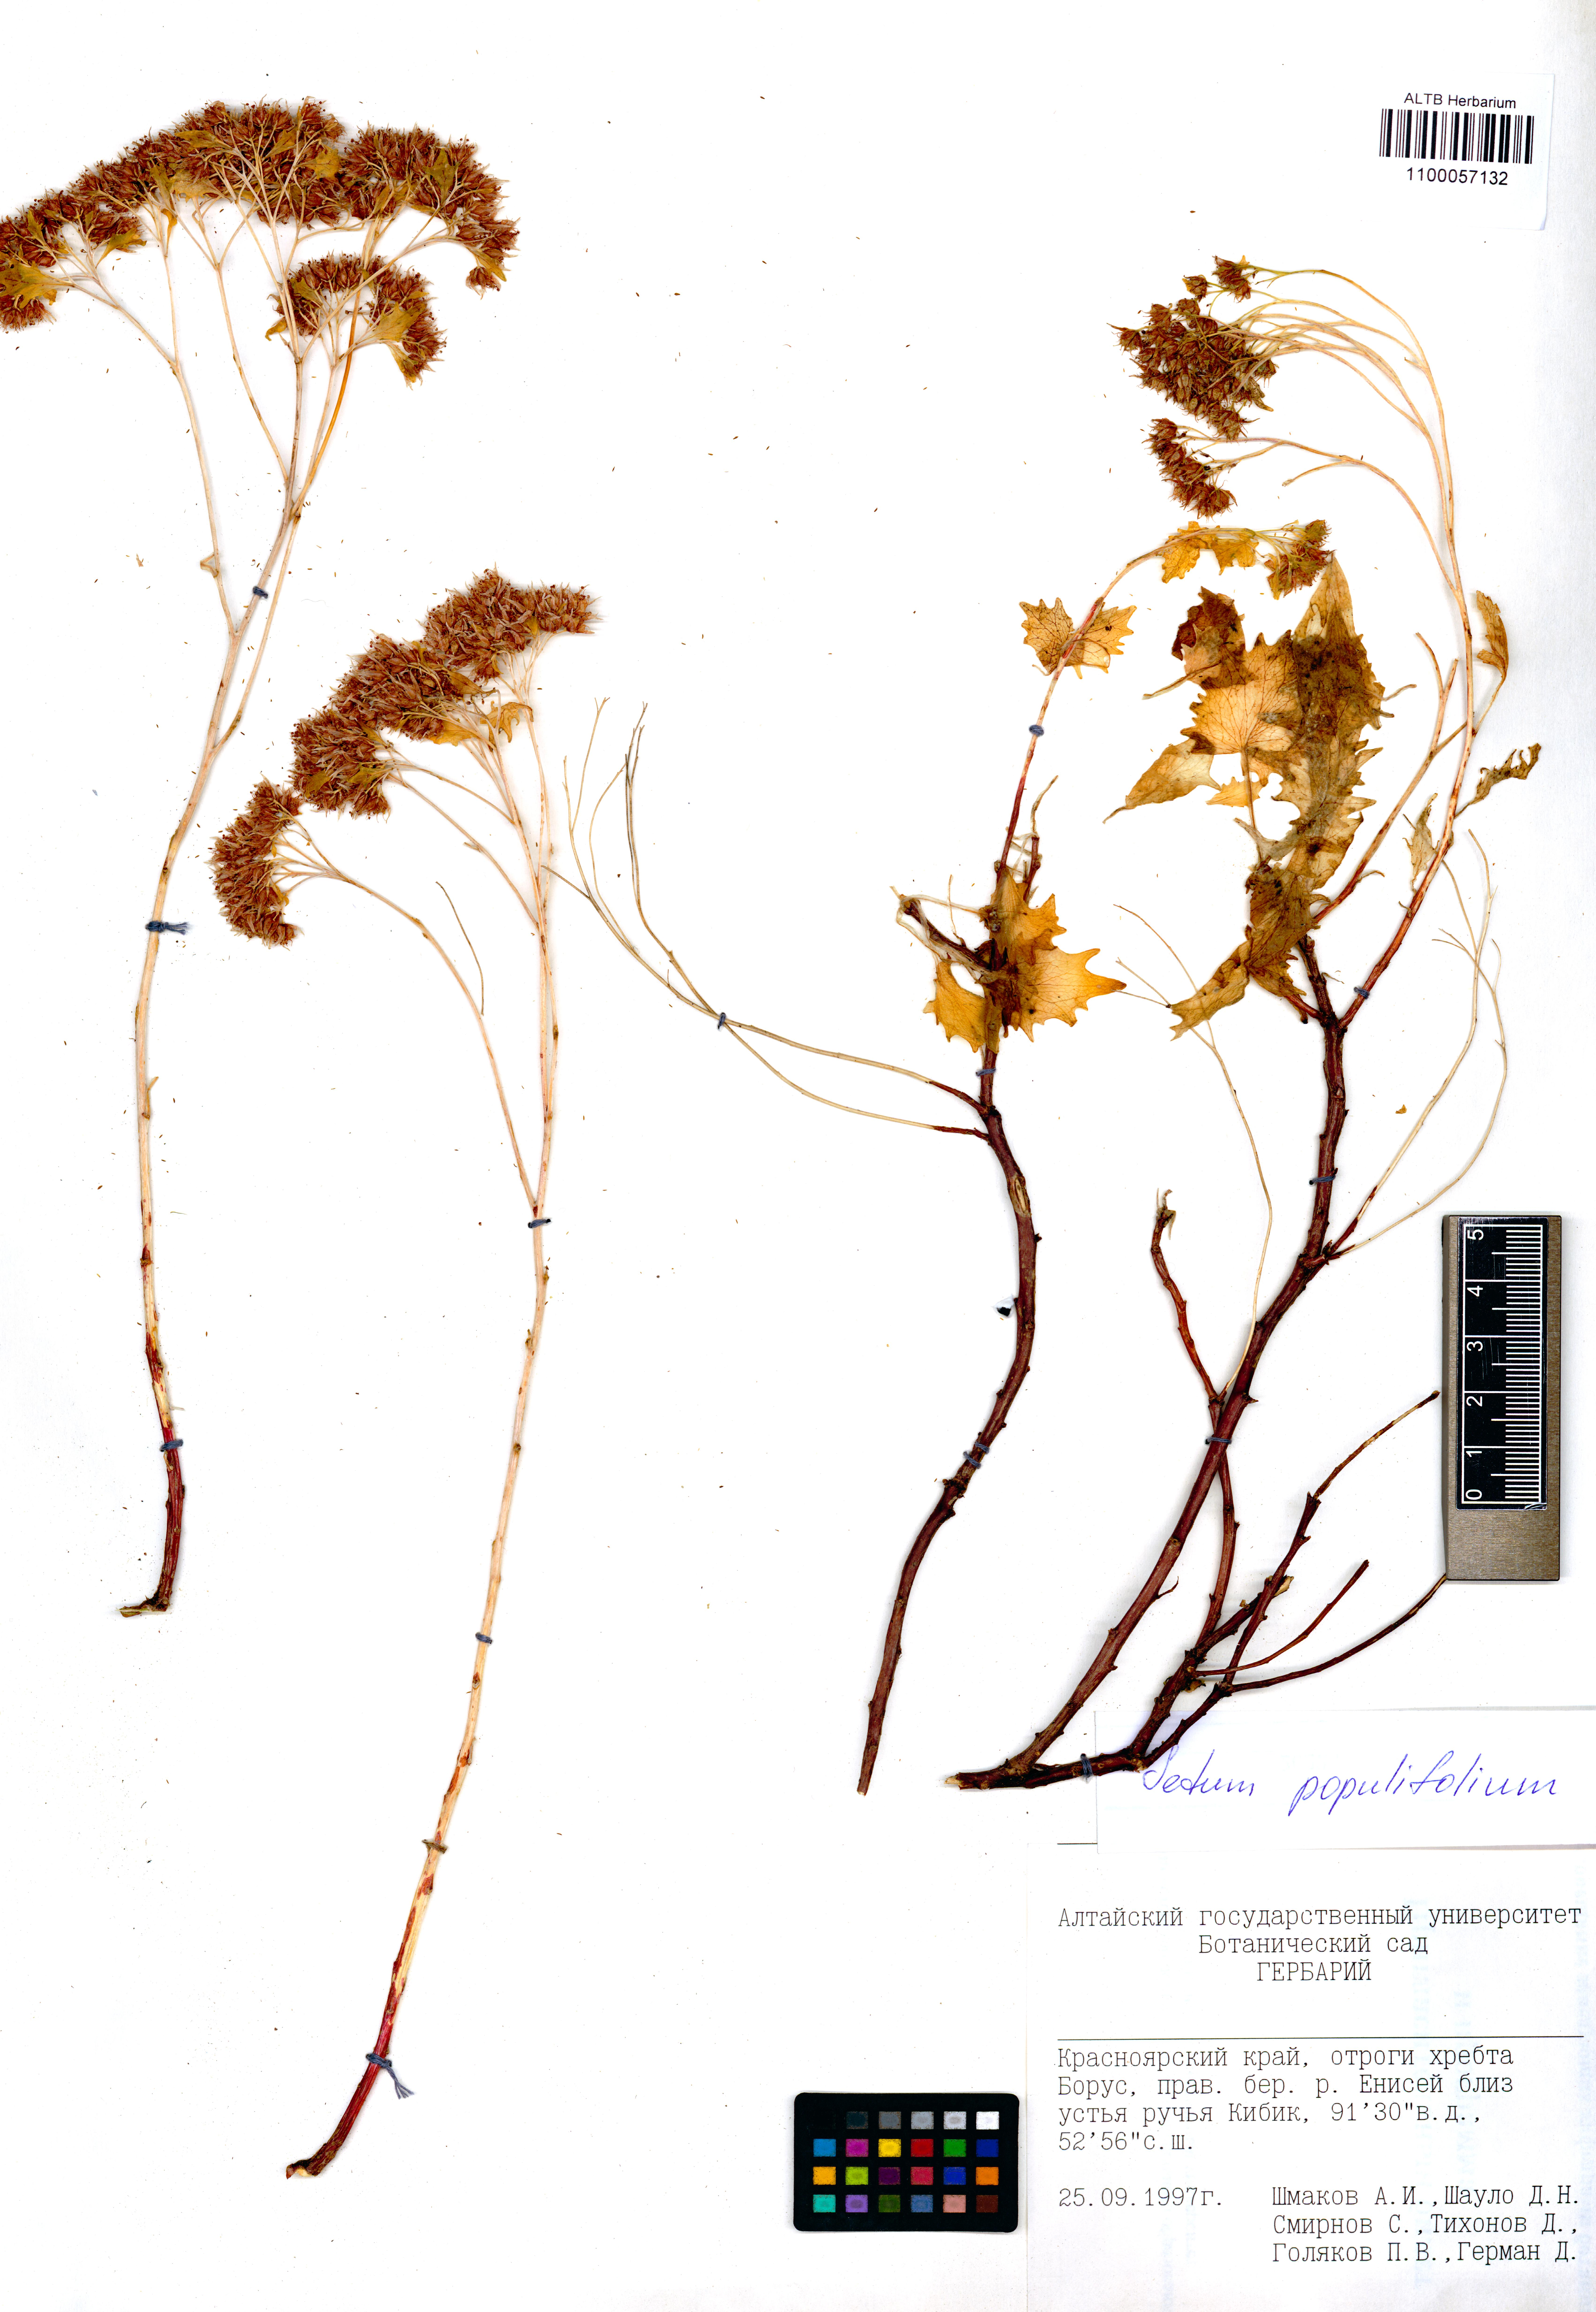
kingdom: Plantae
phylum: Tracheophyta
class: Magnoliopsida
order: Saxifragales
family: Crassulaceae
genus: Hylotelephium
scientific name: Hylotelephium populifolium
